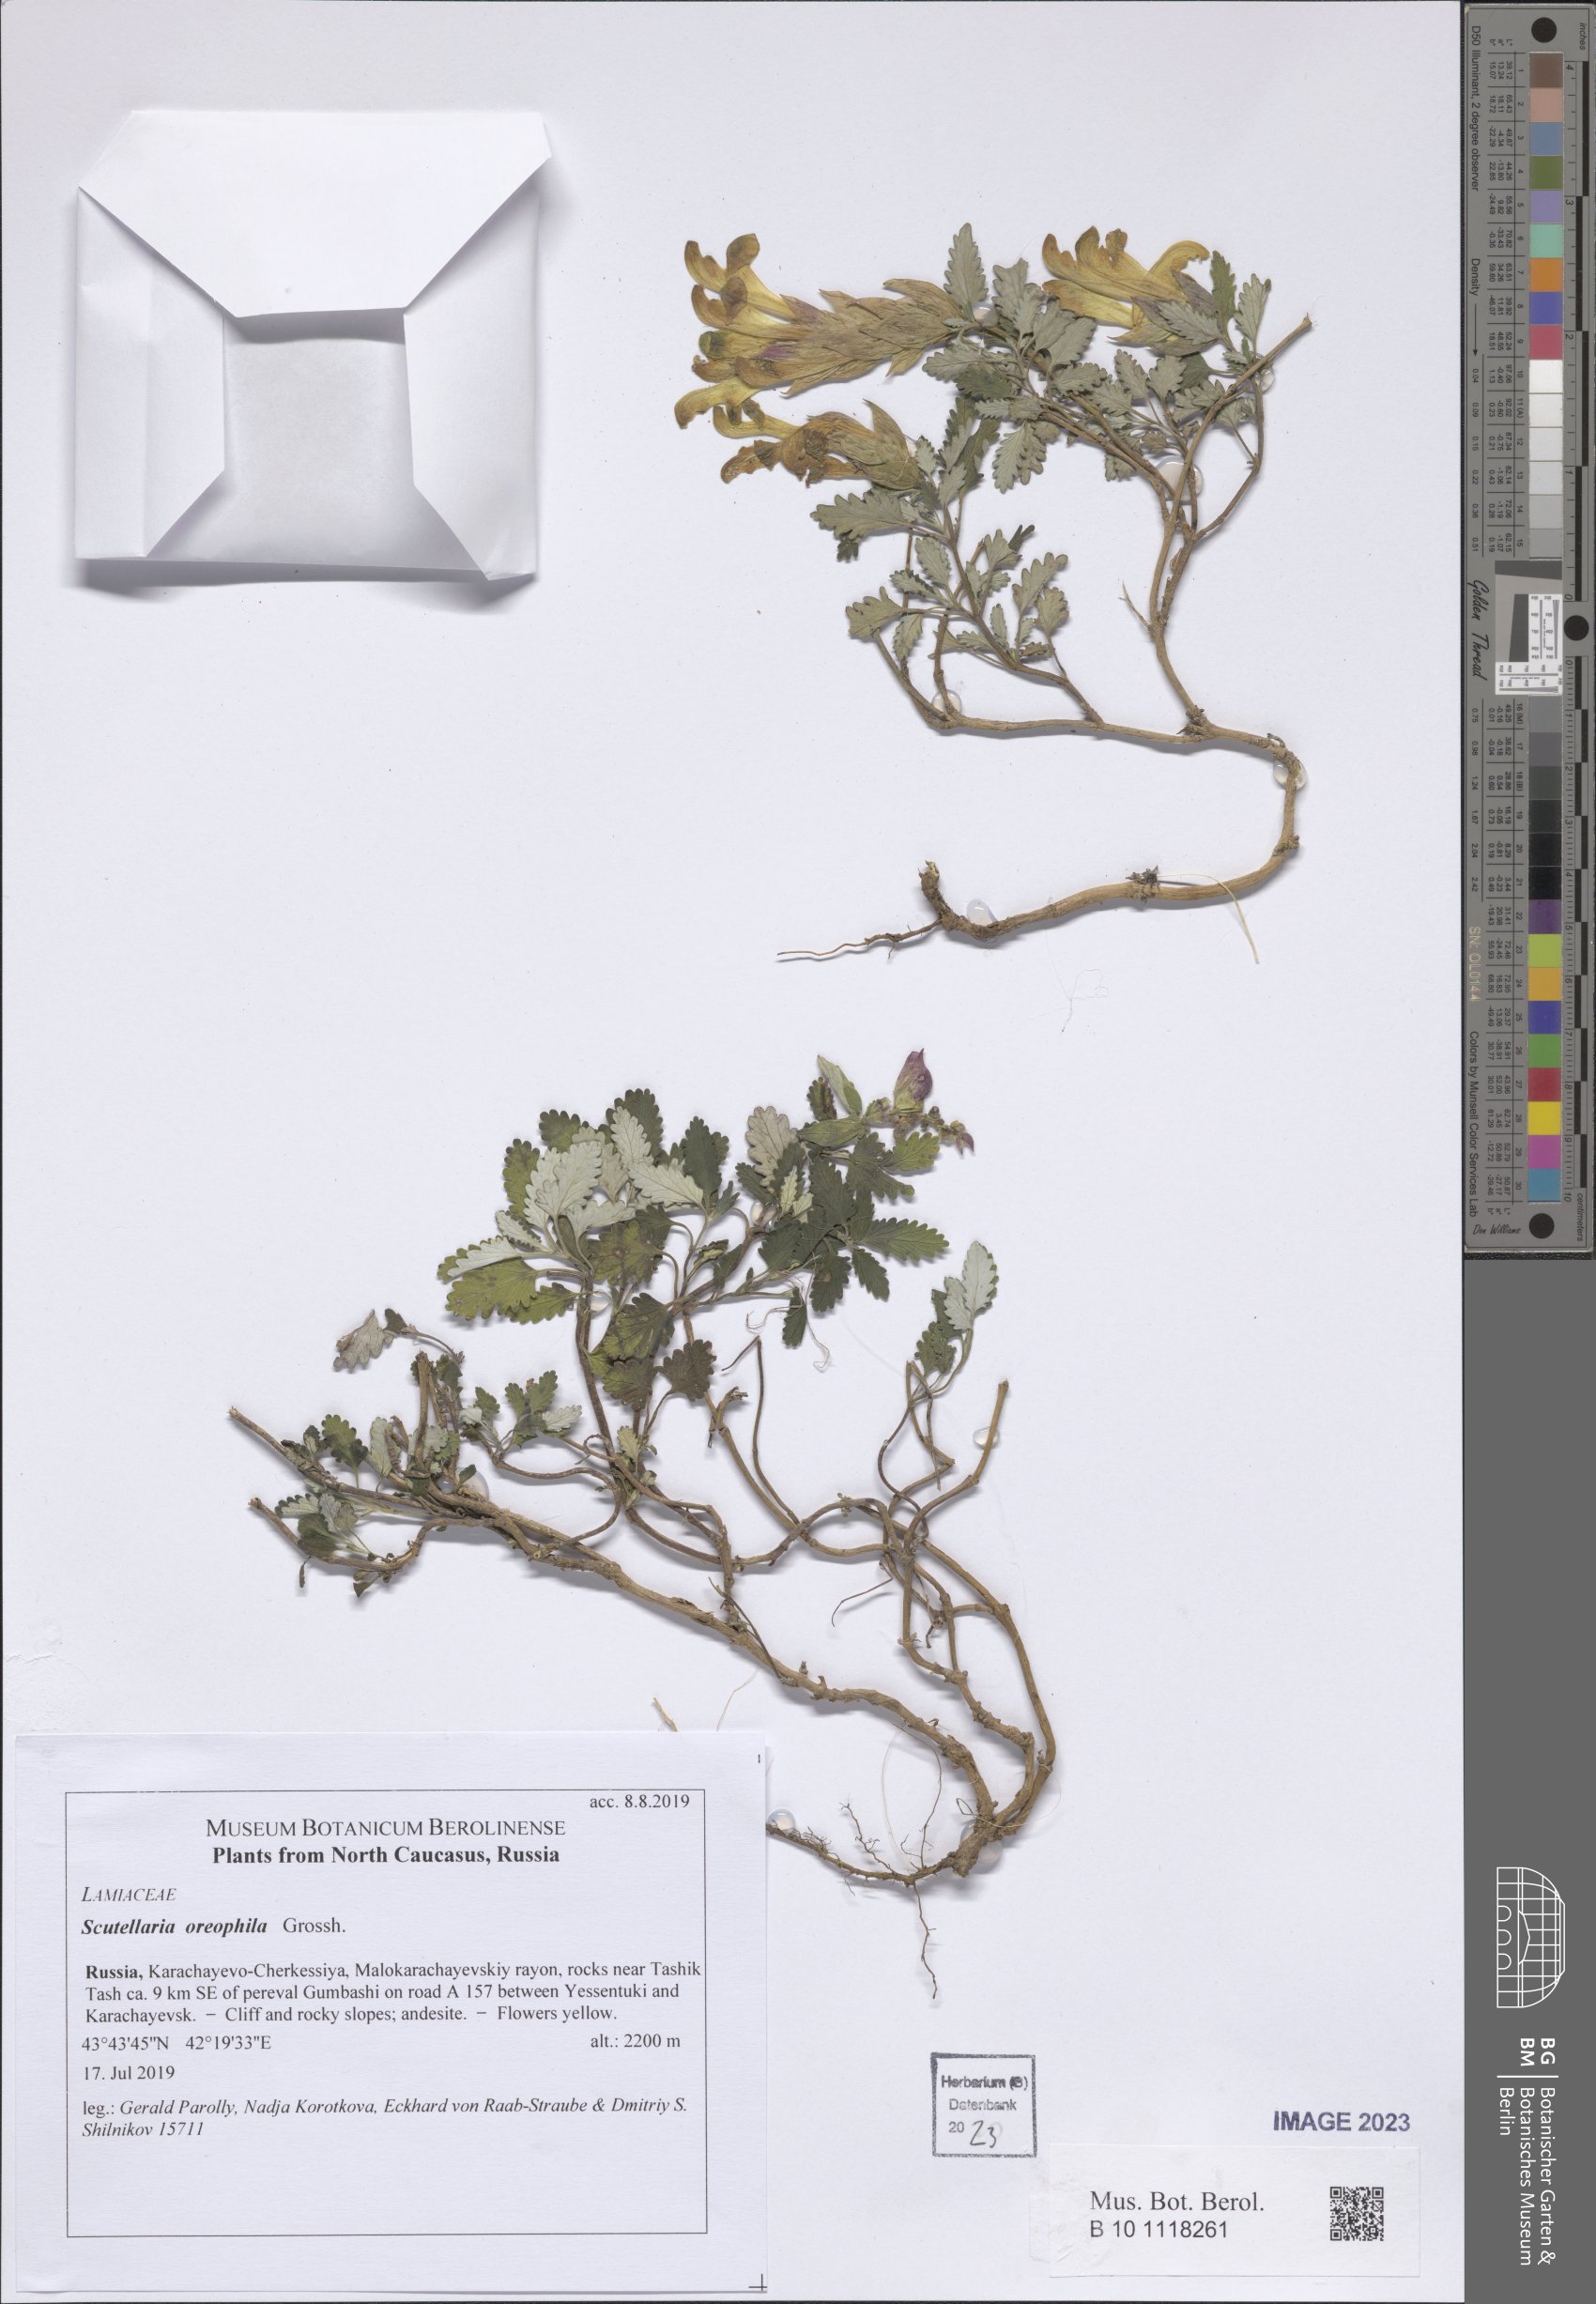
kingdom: Plantae
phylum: Tracheophyta
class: Magnoliopsida
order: Lamiales
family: Lamiaceae
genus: Scutellaria
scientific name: Scutellaria oreophila
